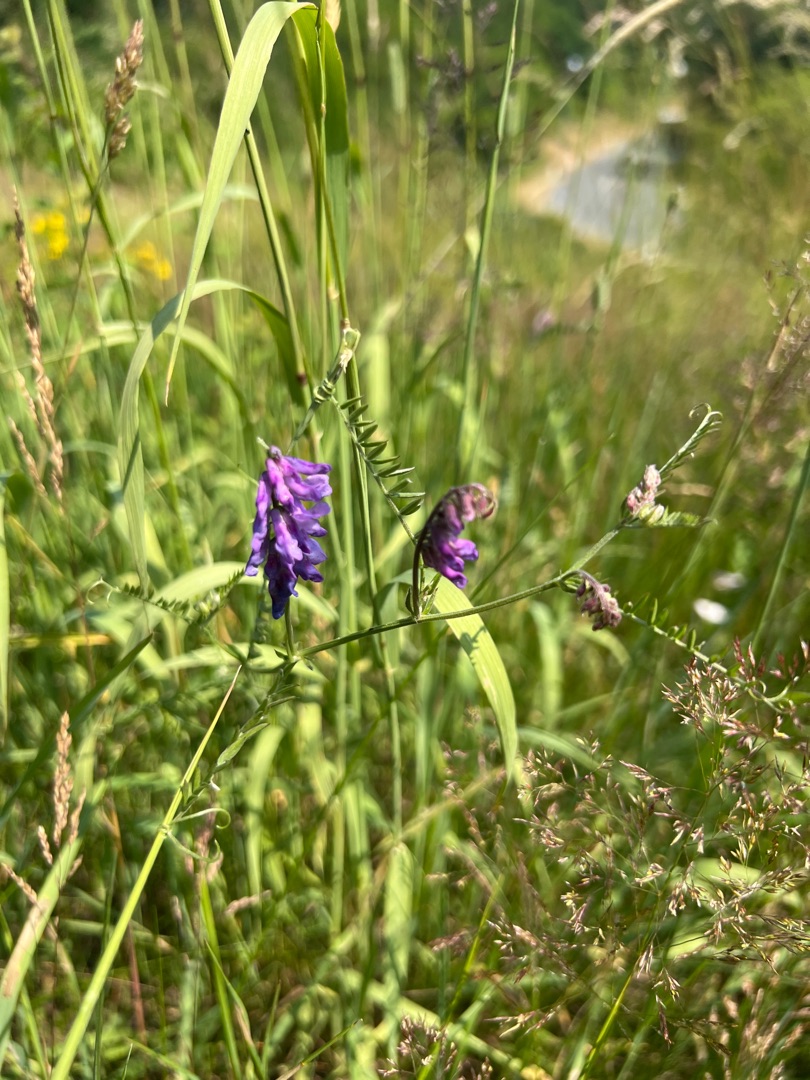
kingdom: Plantae
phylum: Tracheophyta
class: Magnoliopsida
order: Fabales
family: Fabaceae
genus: Vicia
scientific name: Vicia cracca
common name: Muse-vikke
